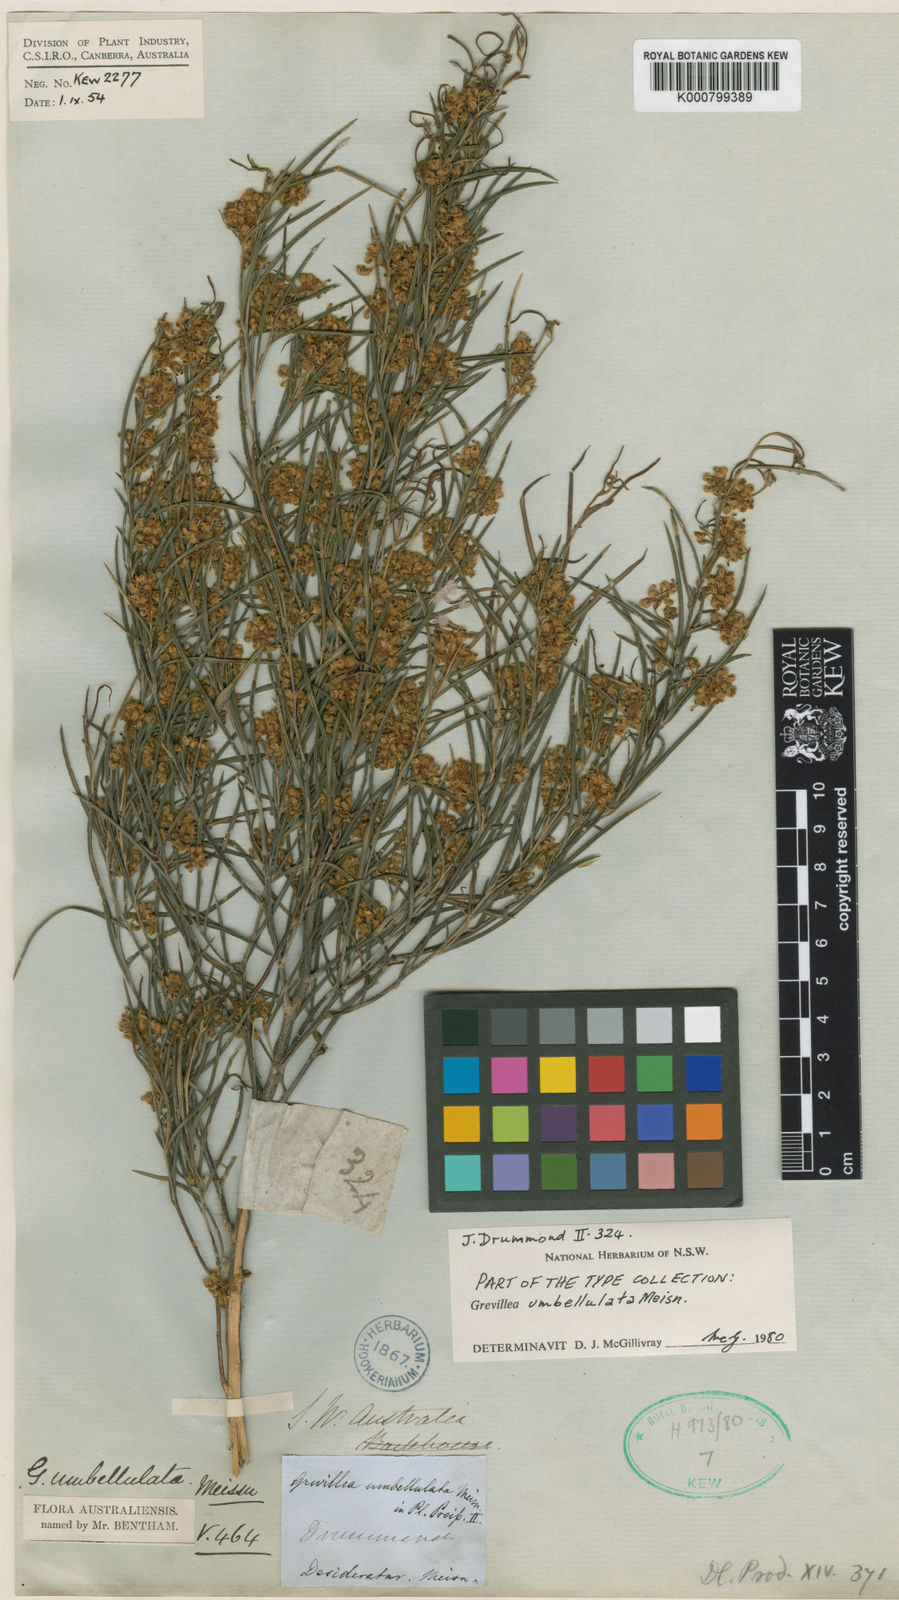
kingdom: Plantae
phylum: Tracheophyta
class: Magnoliopsida
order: Proteales
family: Proteaceae
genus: Grevillea
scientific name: Grevillea umbellulata
